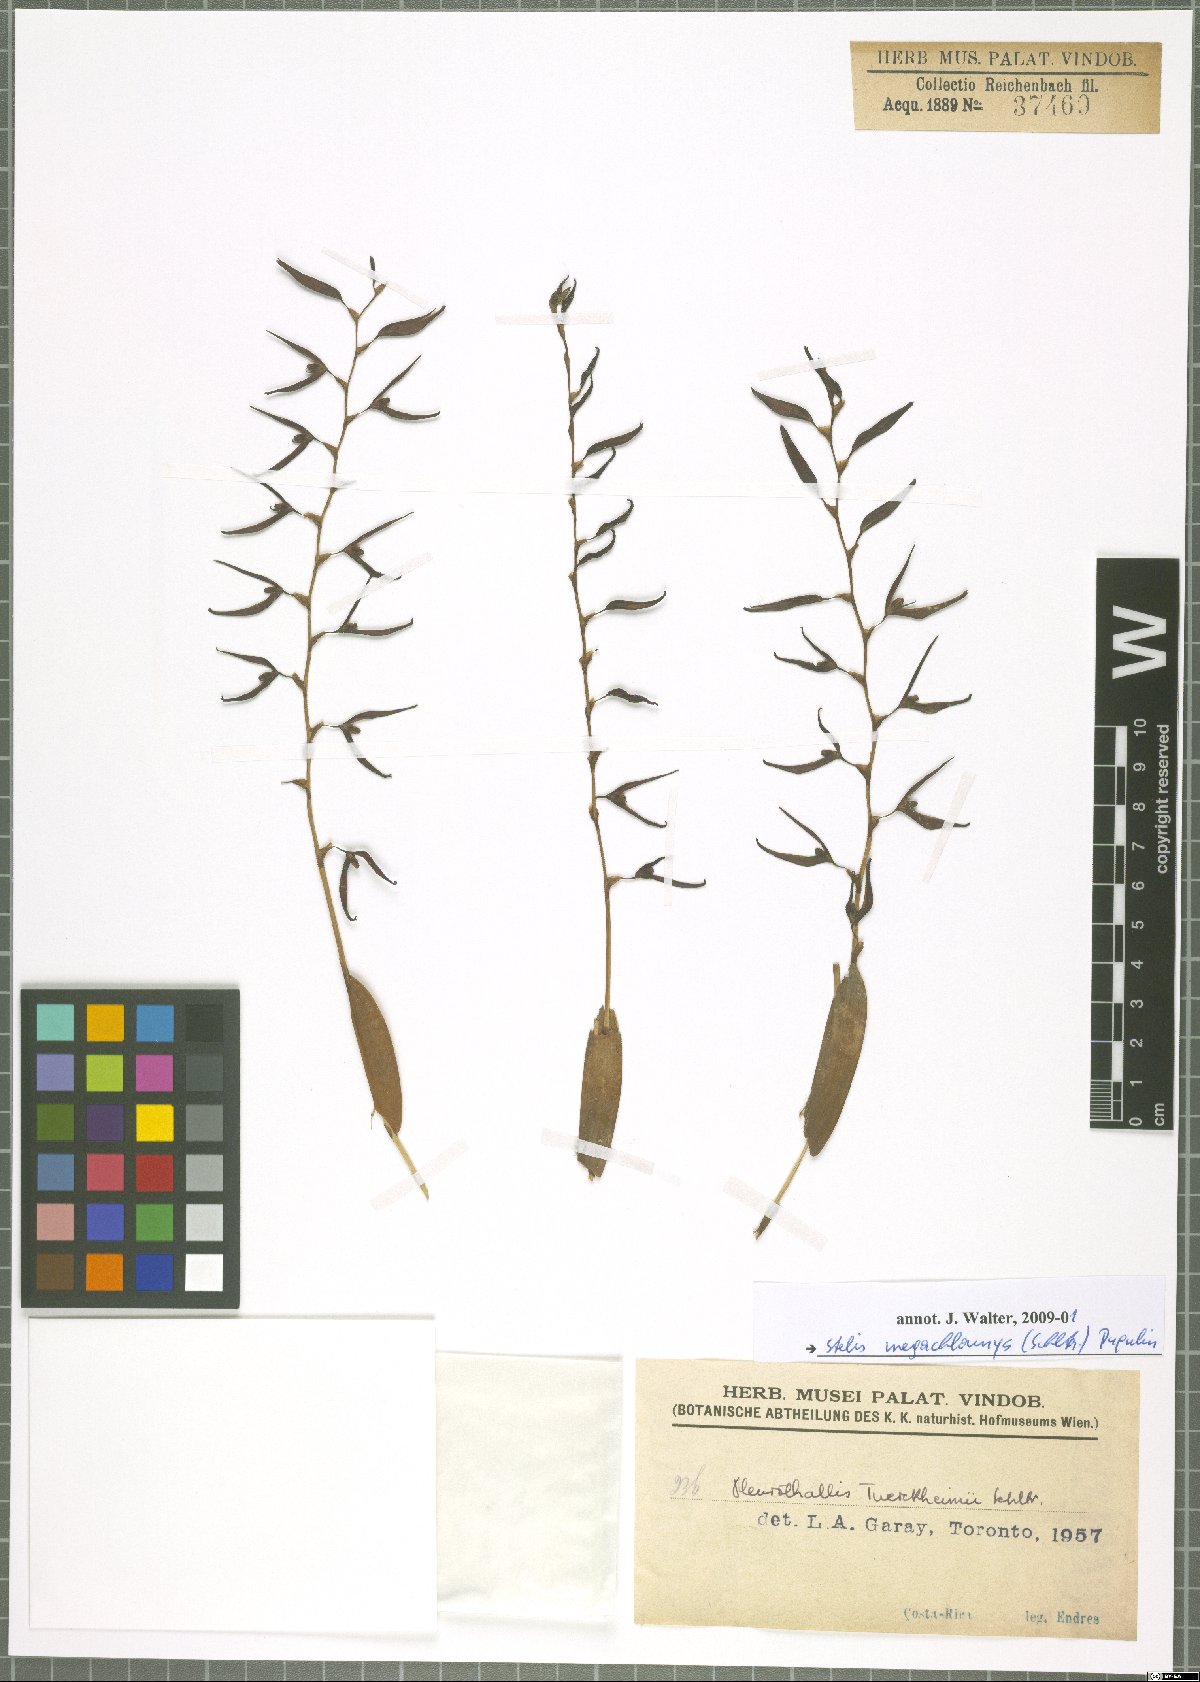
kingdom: Plantae
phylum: Tracheophyta
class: Liliopsida
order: Asparagales
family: Orchidaceae
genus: Stelis
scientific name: Stelis megachlamys
